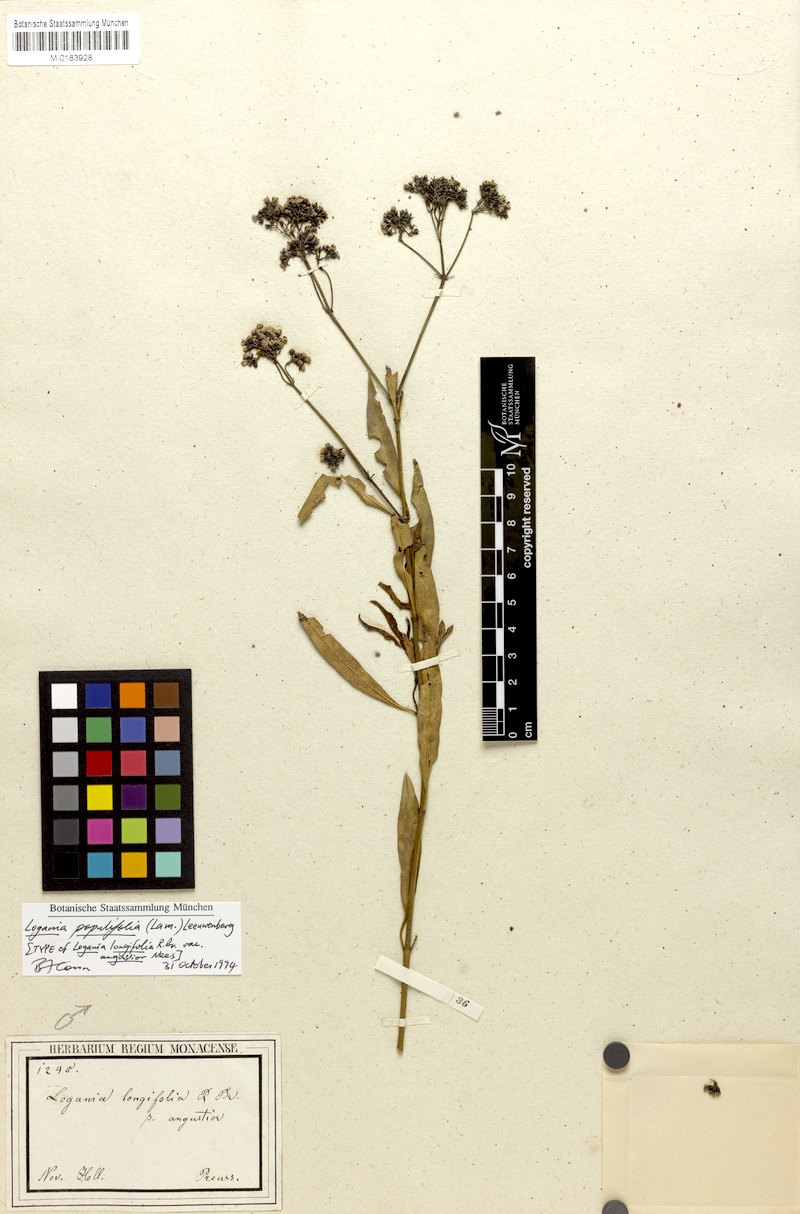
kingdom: Plantae
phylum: Tracheophyta
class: Magnoliopsida
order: Gentianales
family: Loganiaceae
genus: Logania
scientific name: Logania vaginalis
